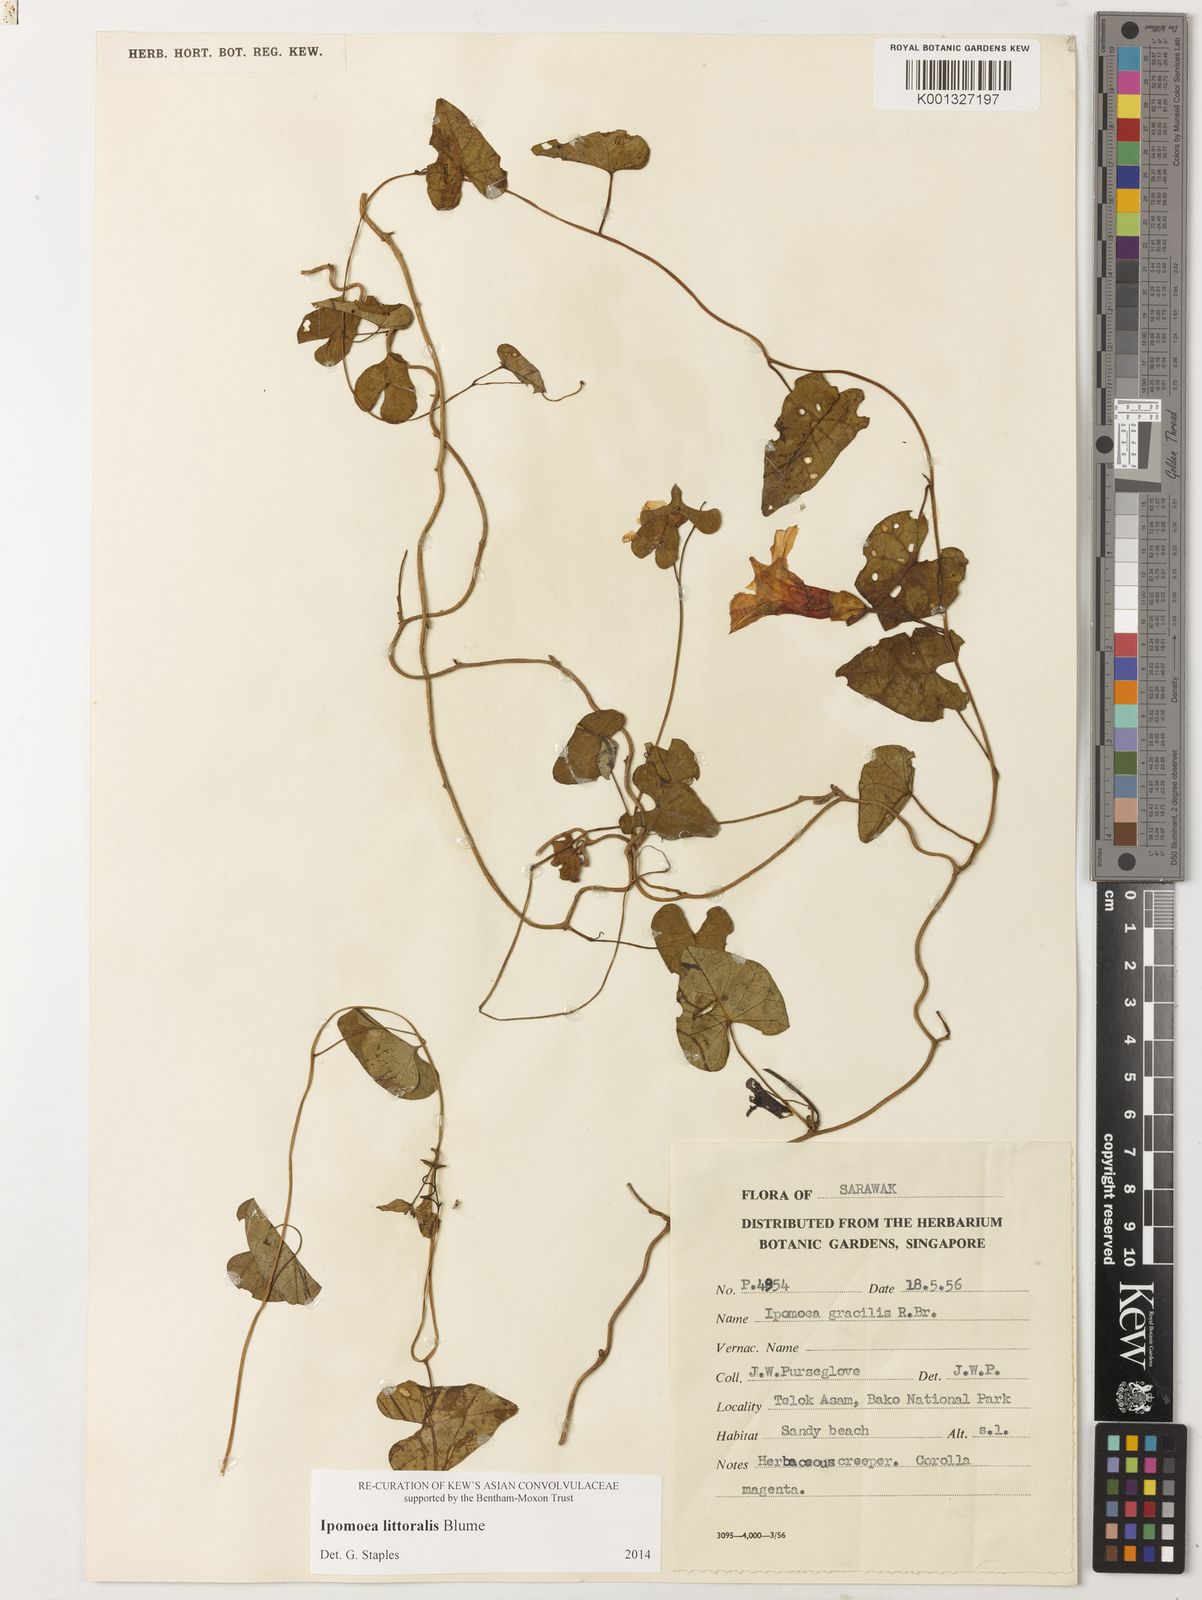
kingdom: Plantae
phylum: Tracheophyta
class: Magnoliopsida
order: Solanales
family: Convolvulaceae
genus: Ipomoea
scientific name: Ipomoea littoralis
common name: Coastal morning glory
